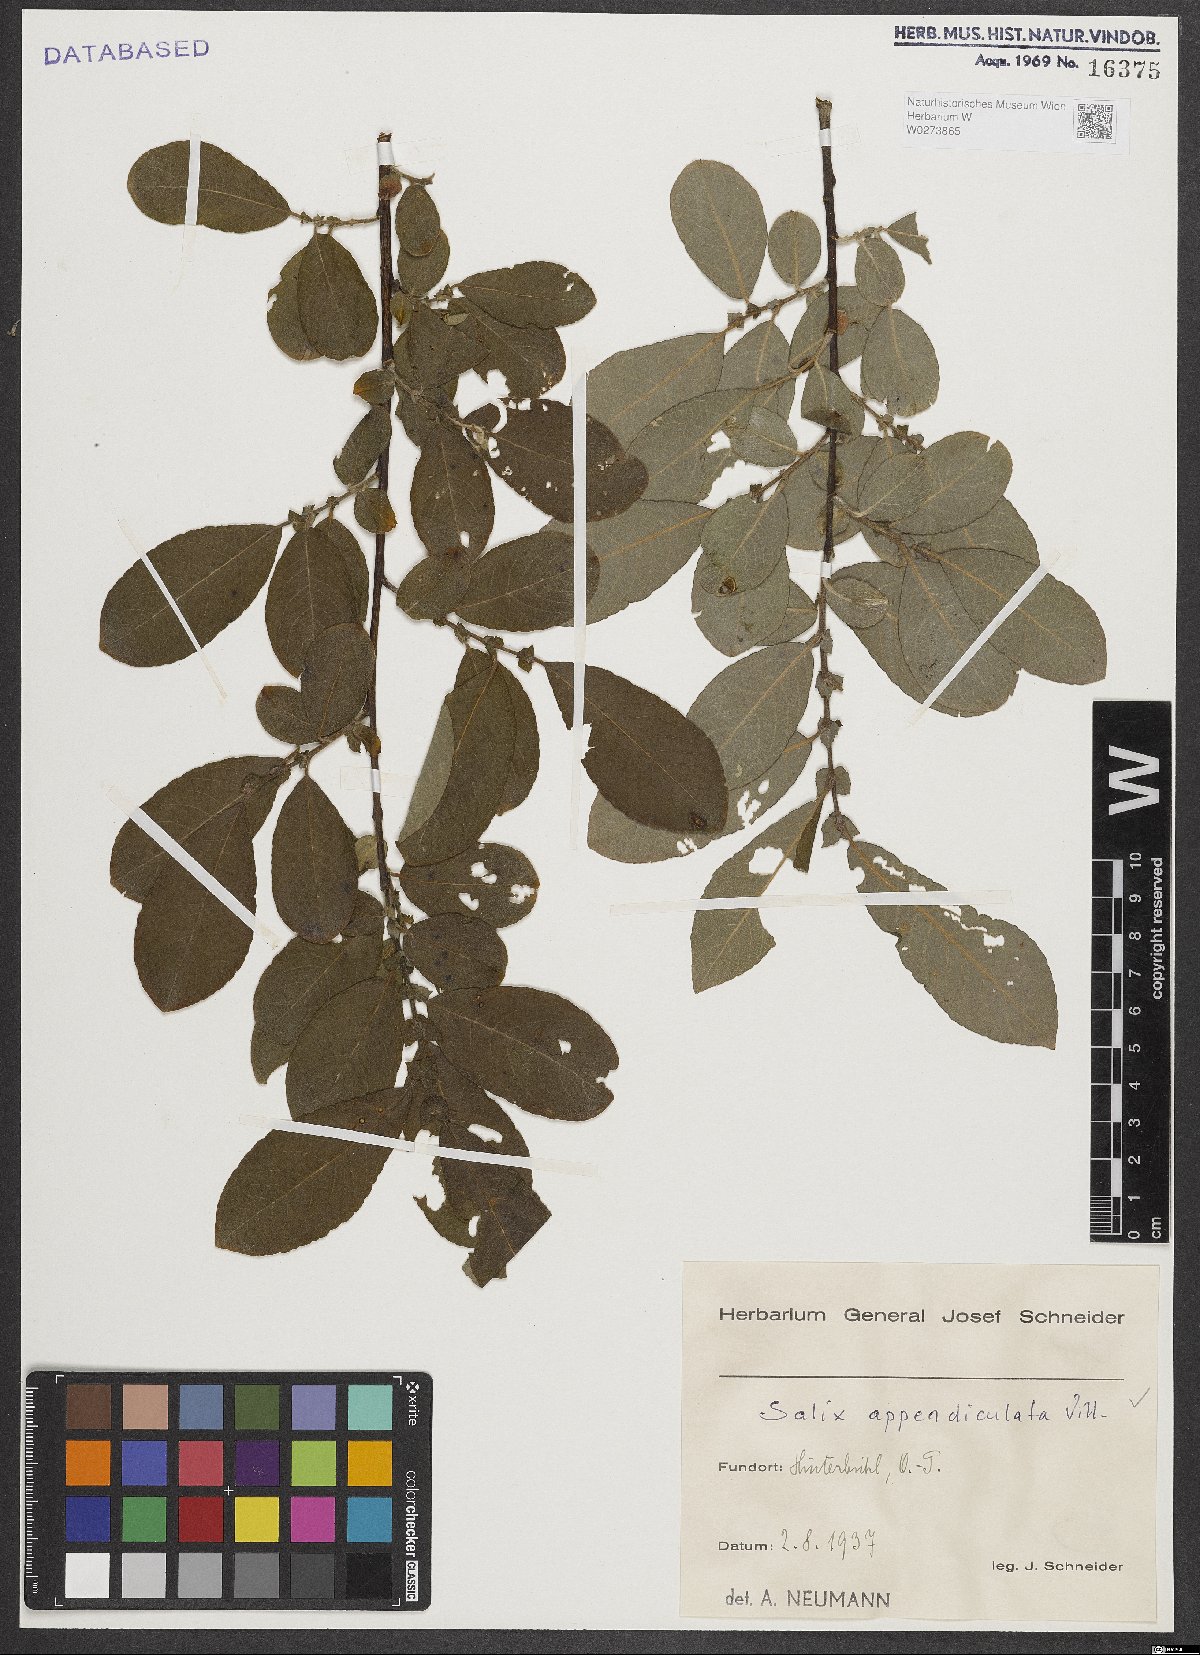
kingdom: Plantae
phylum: Tracheophyta
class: Magnoliopsida
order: Malpighiales
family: Salicaceae
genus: Salix
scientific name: Salix appendiculata
